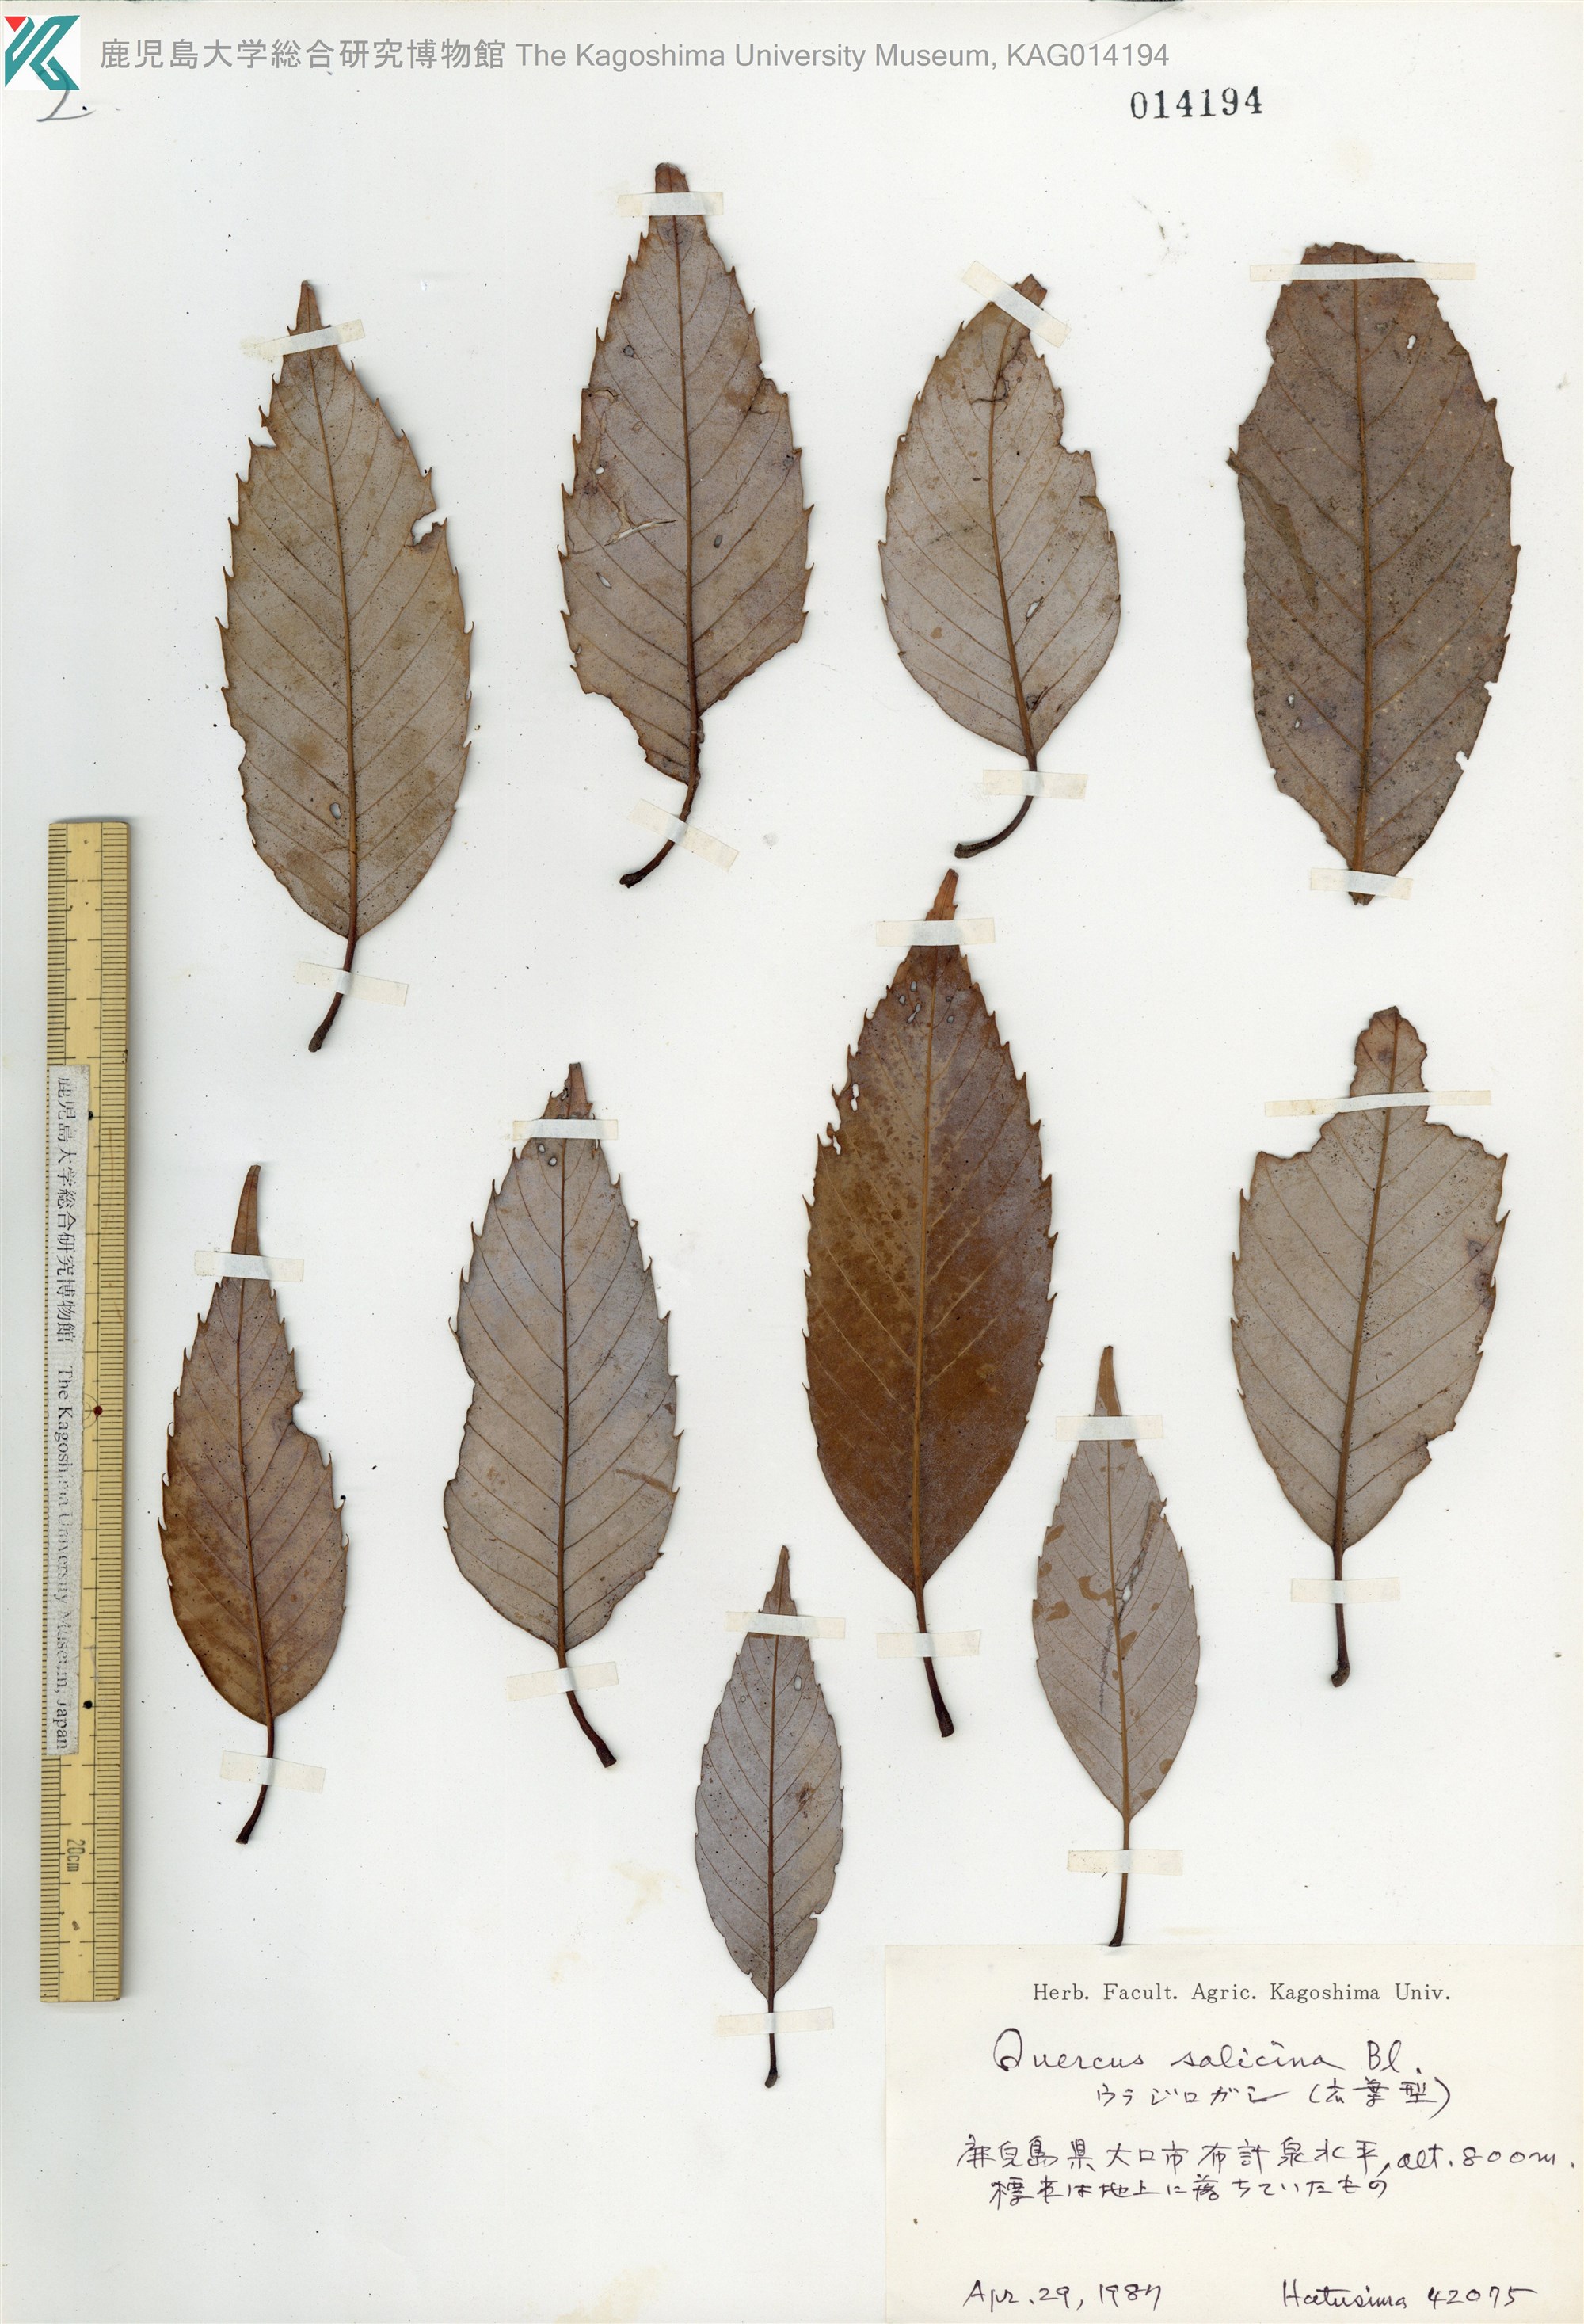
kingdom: Plantae
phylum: Tracheophyta
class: Magnoliopsida
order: Fagales
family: Fagaceae
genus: Quercus
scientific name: Quercus salicina
